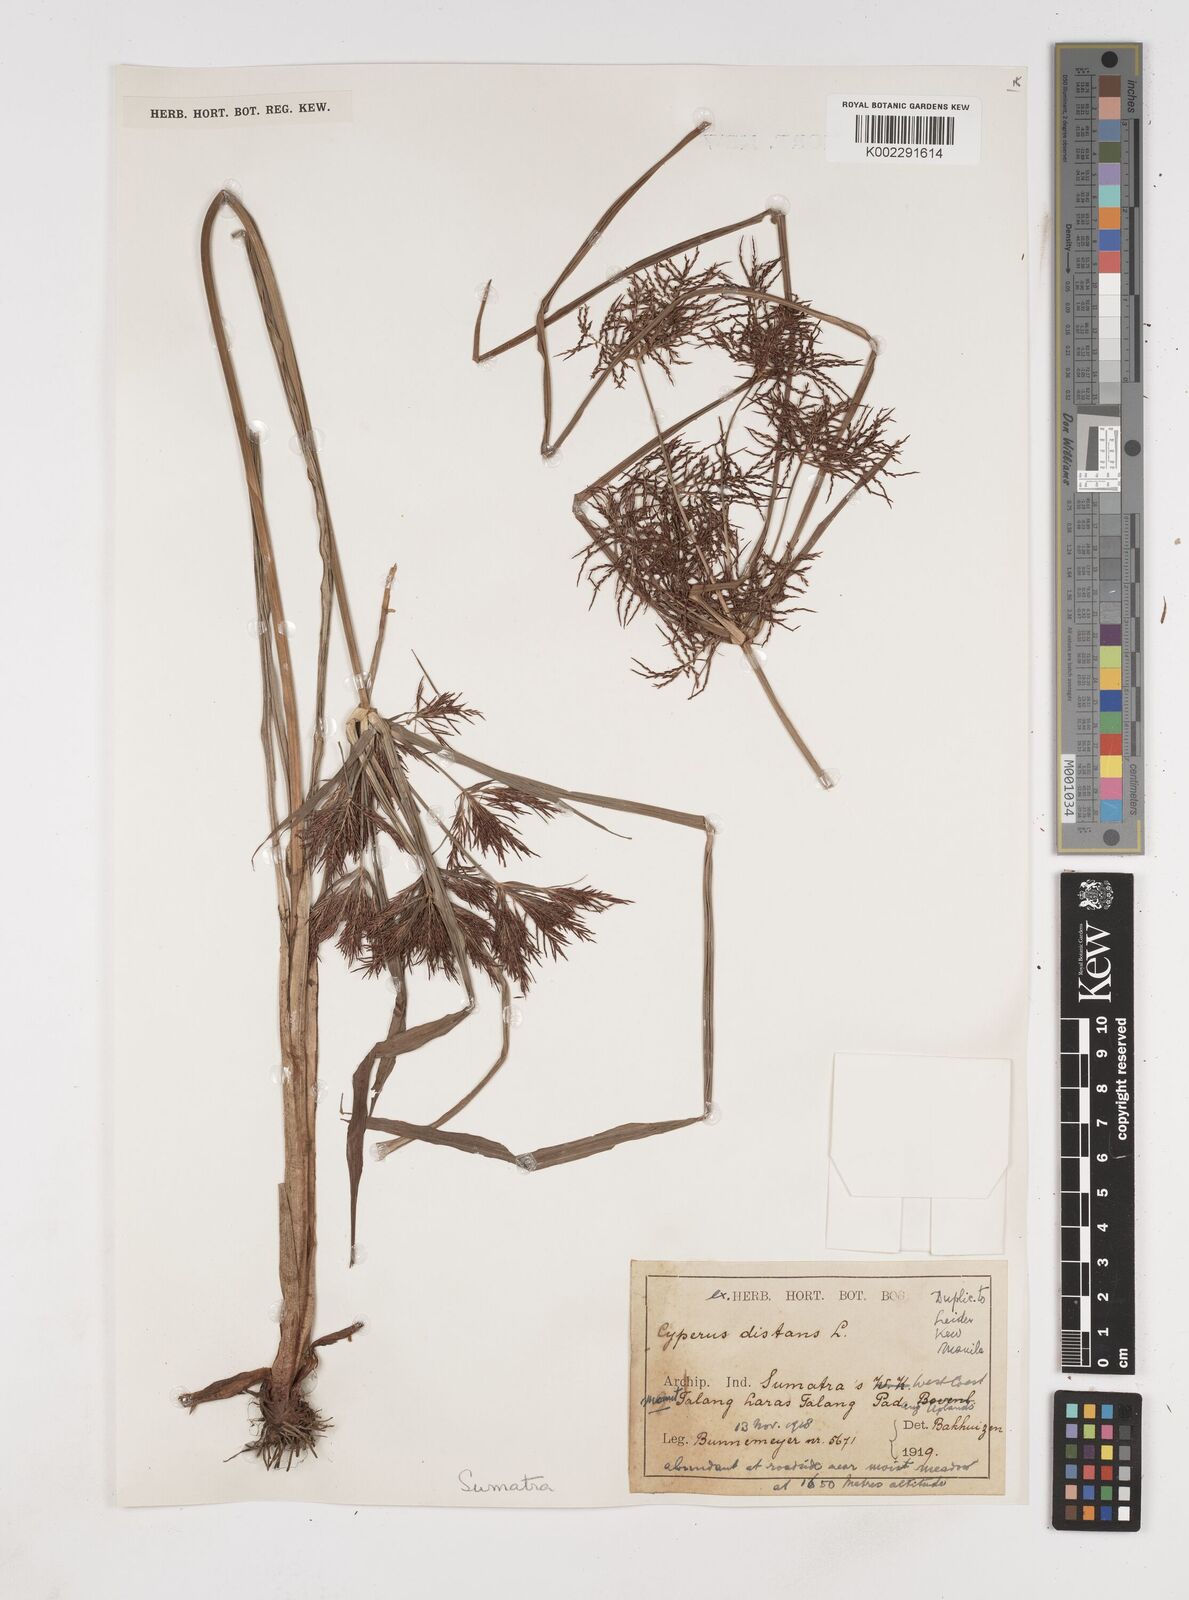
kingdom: Plantae
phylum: Tracheophyta
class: Liliopsida
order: Poales
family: Cyperaceae
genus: Cyperus
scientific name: Cyperus distans
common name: Slender cyperus
